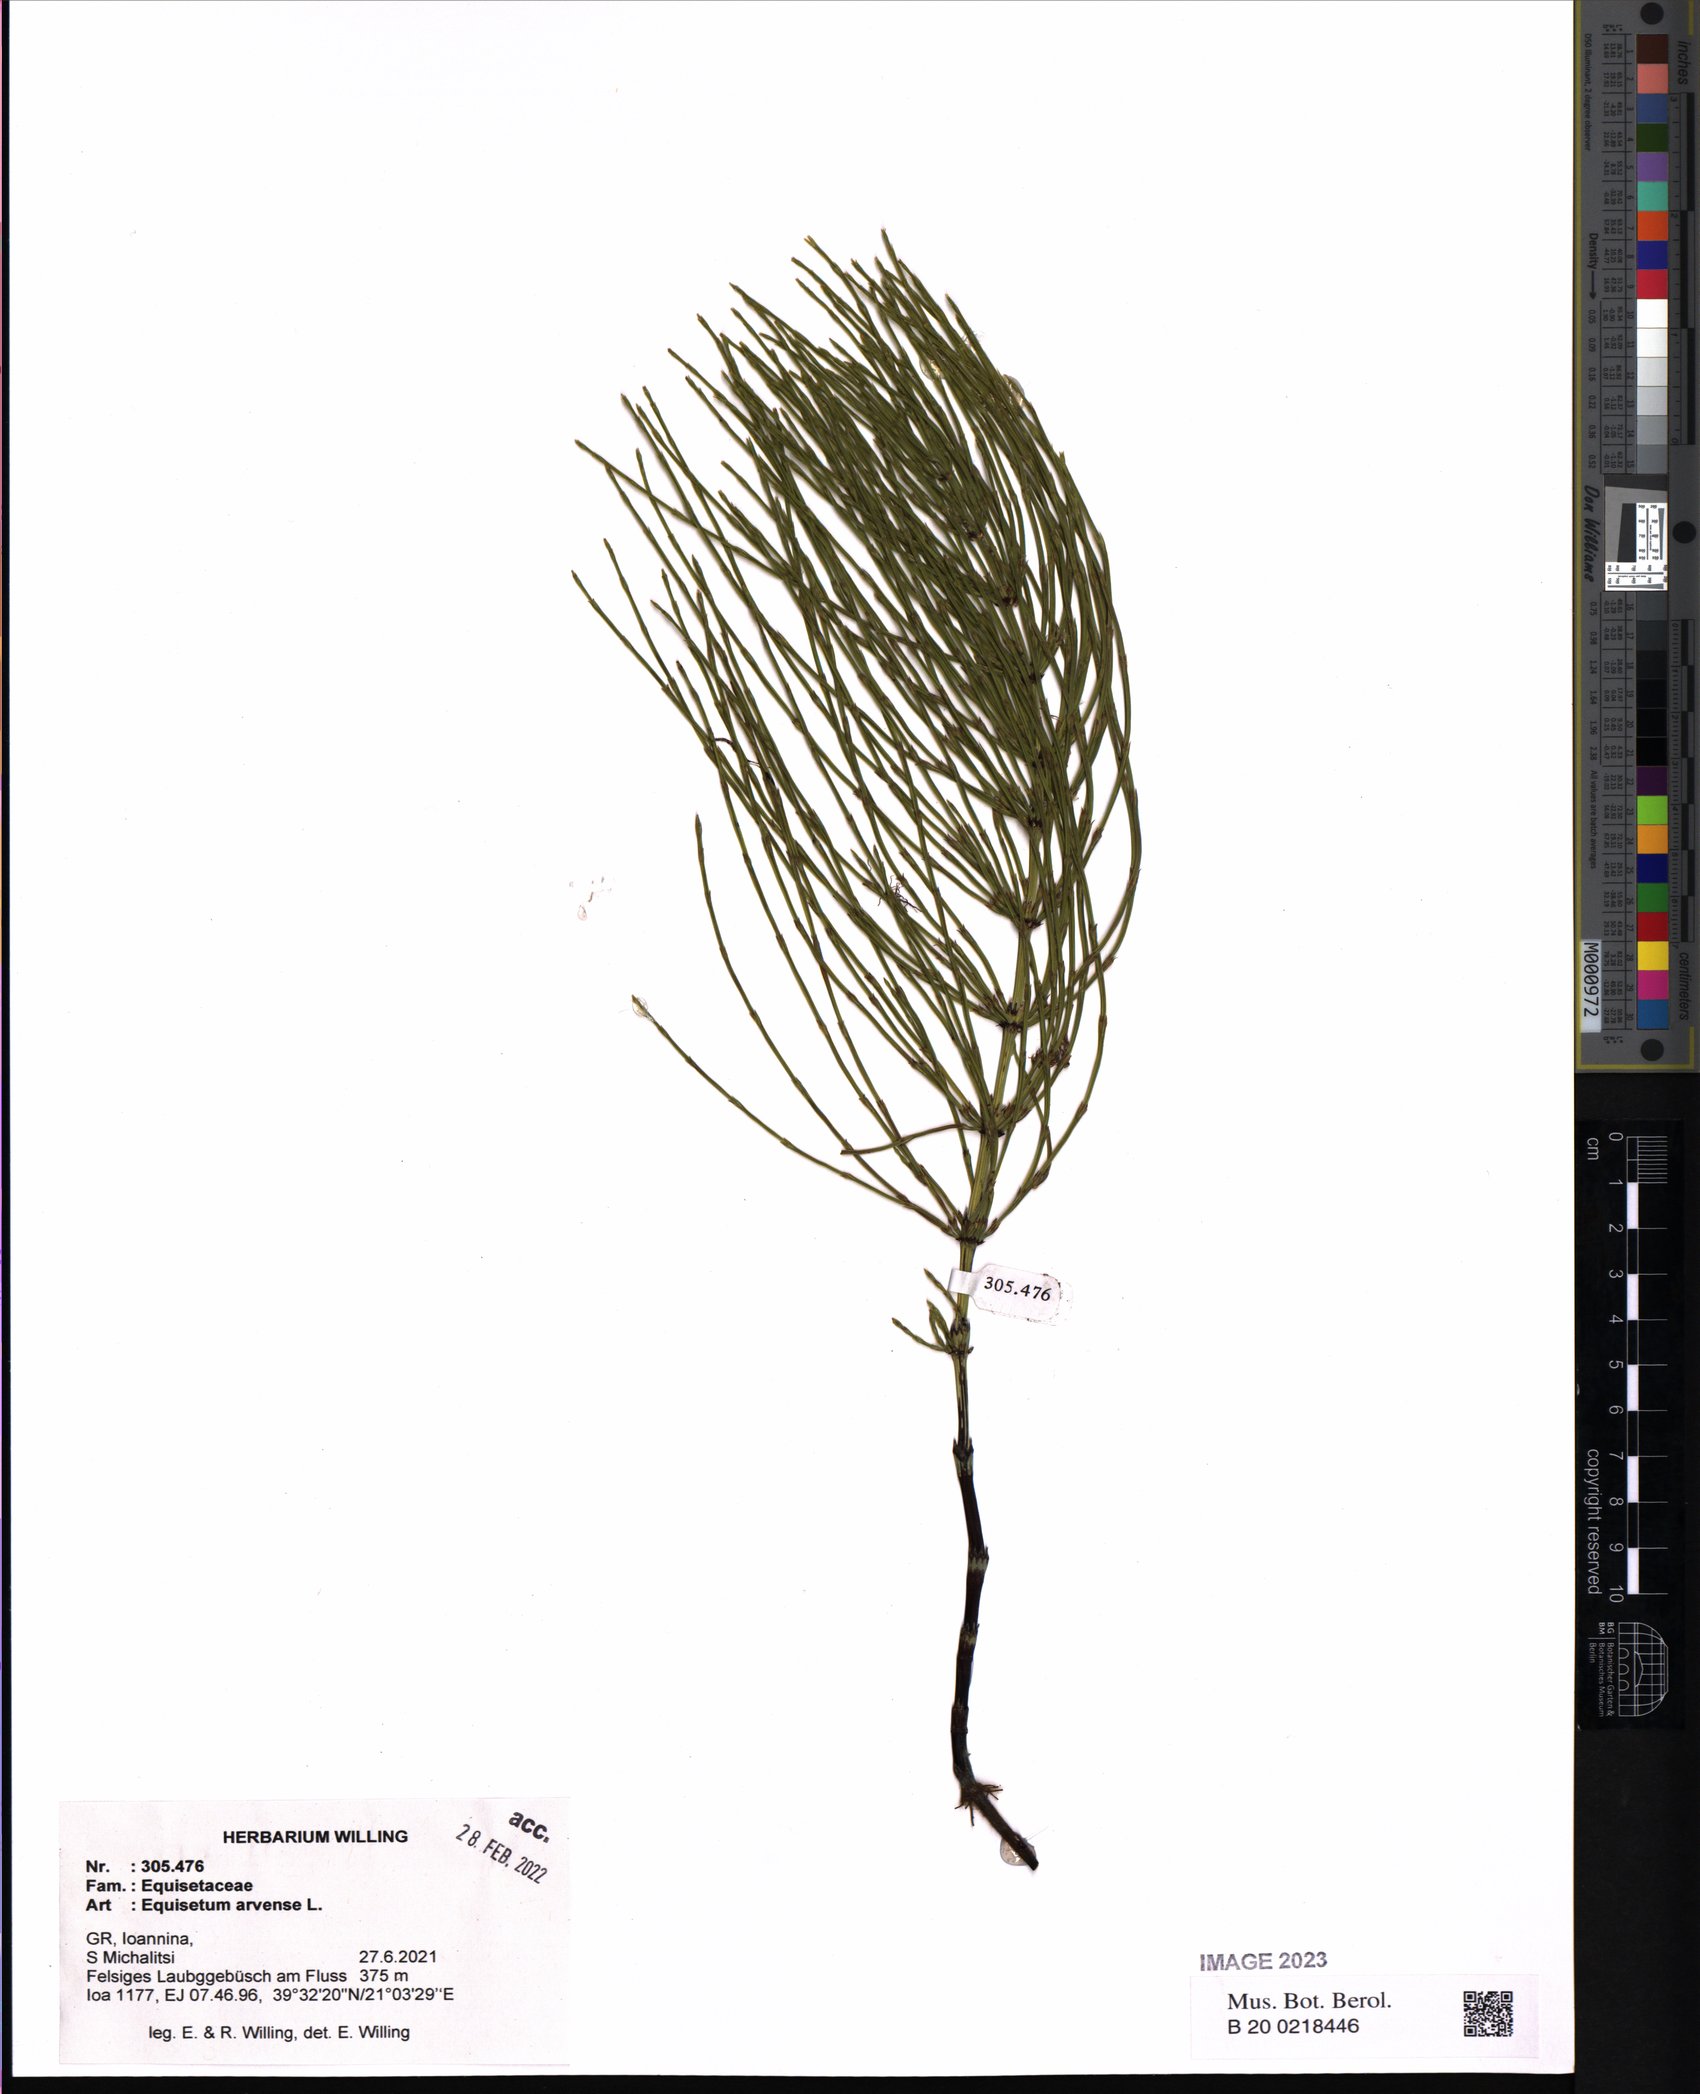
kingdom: Plantae
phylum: Tracheophyta
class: Polypodiopsida
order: Equisetales
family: Equisetaceae
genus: Equisetum
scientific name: Equisetum arvense
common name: Field horsetail
